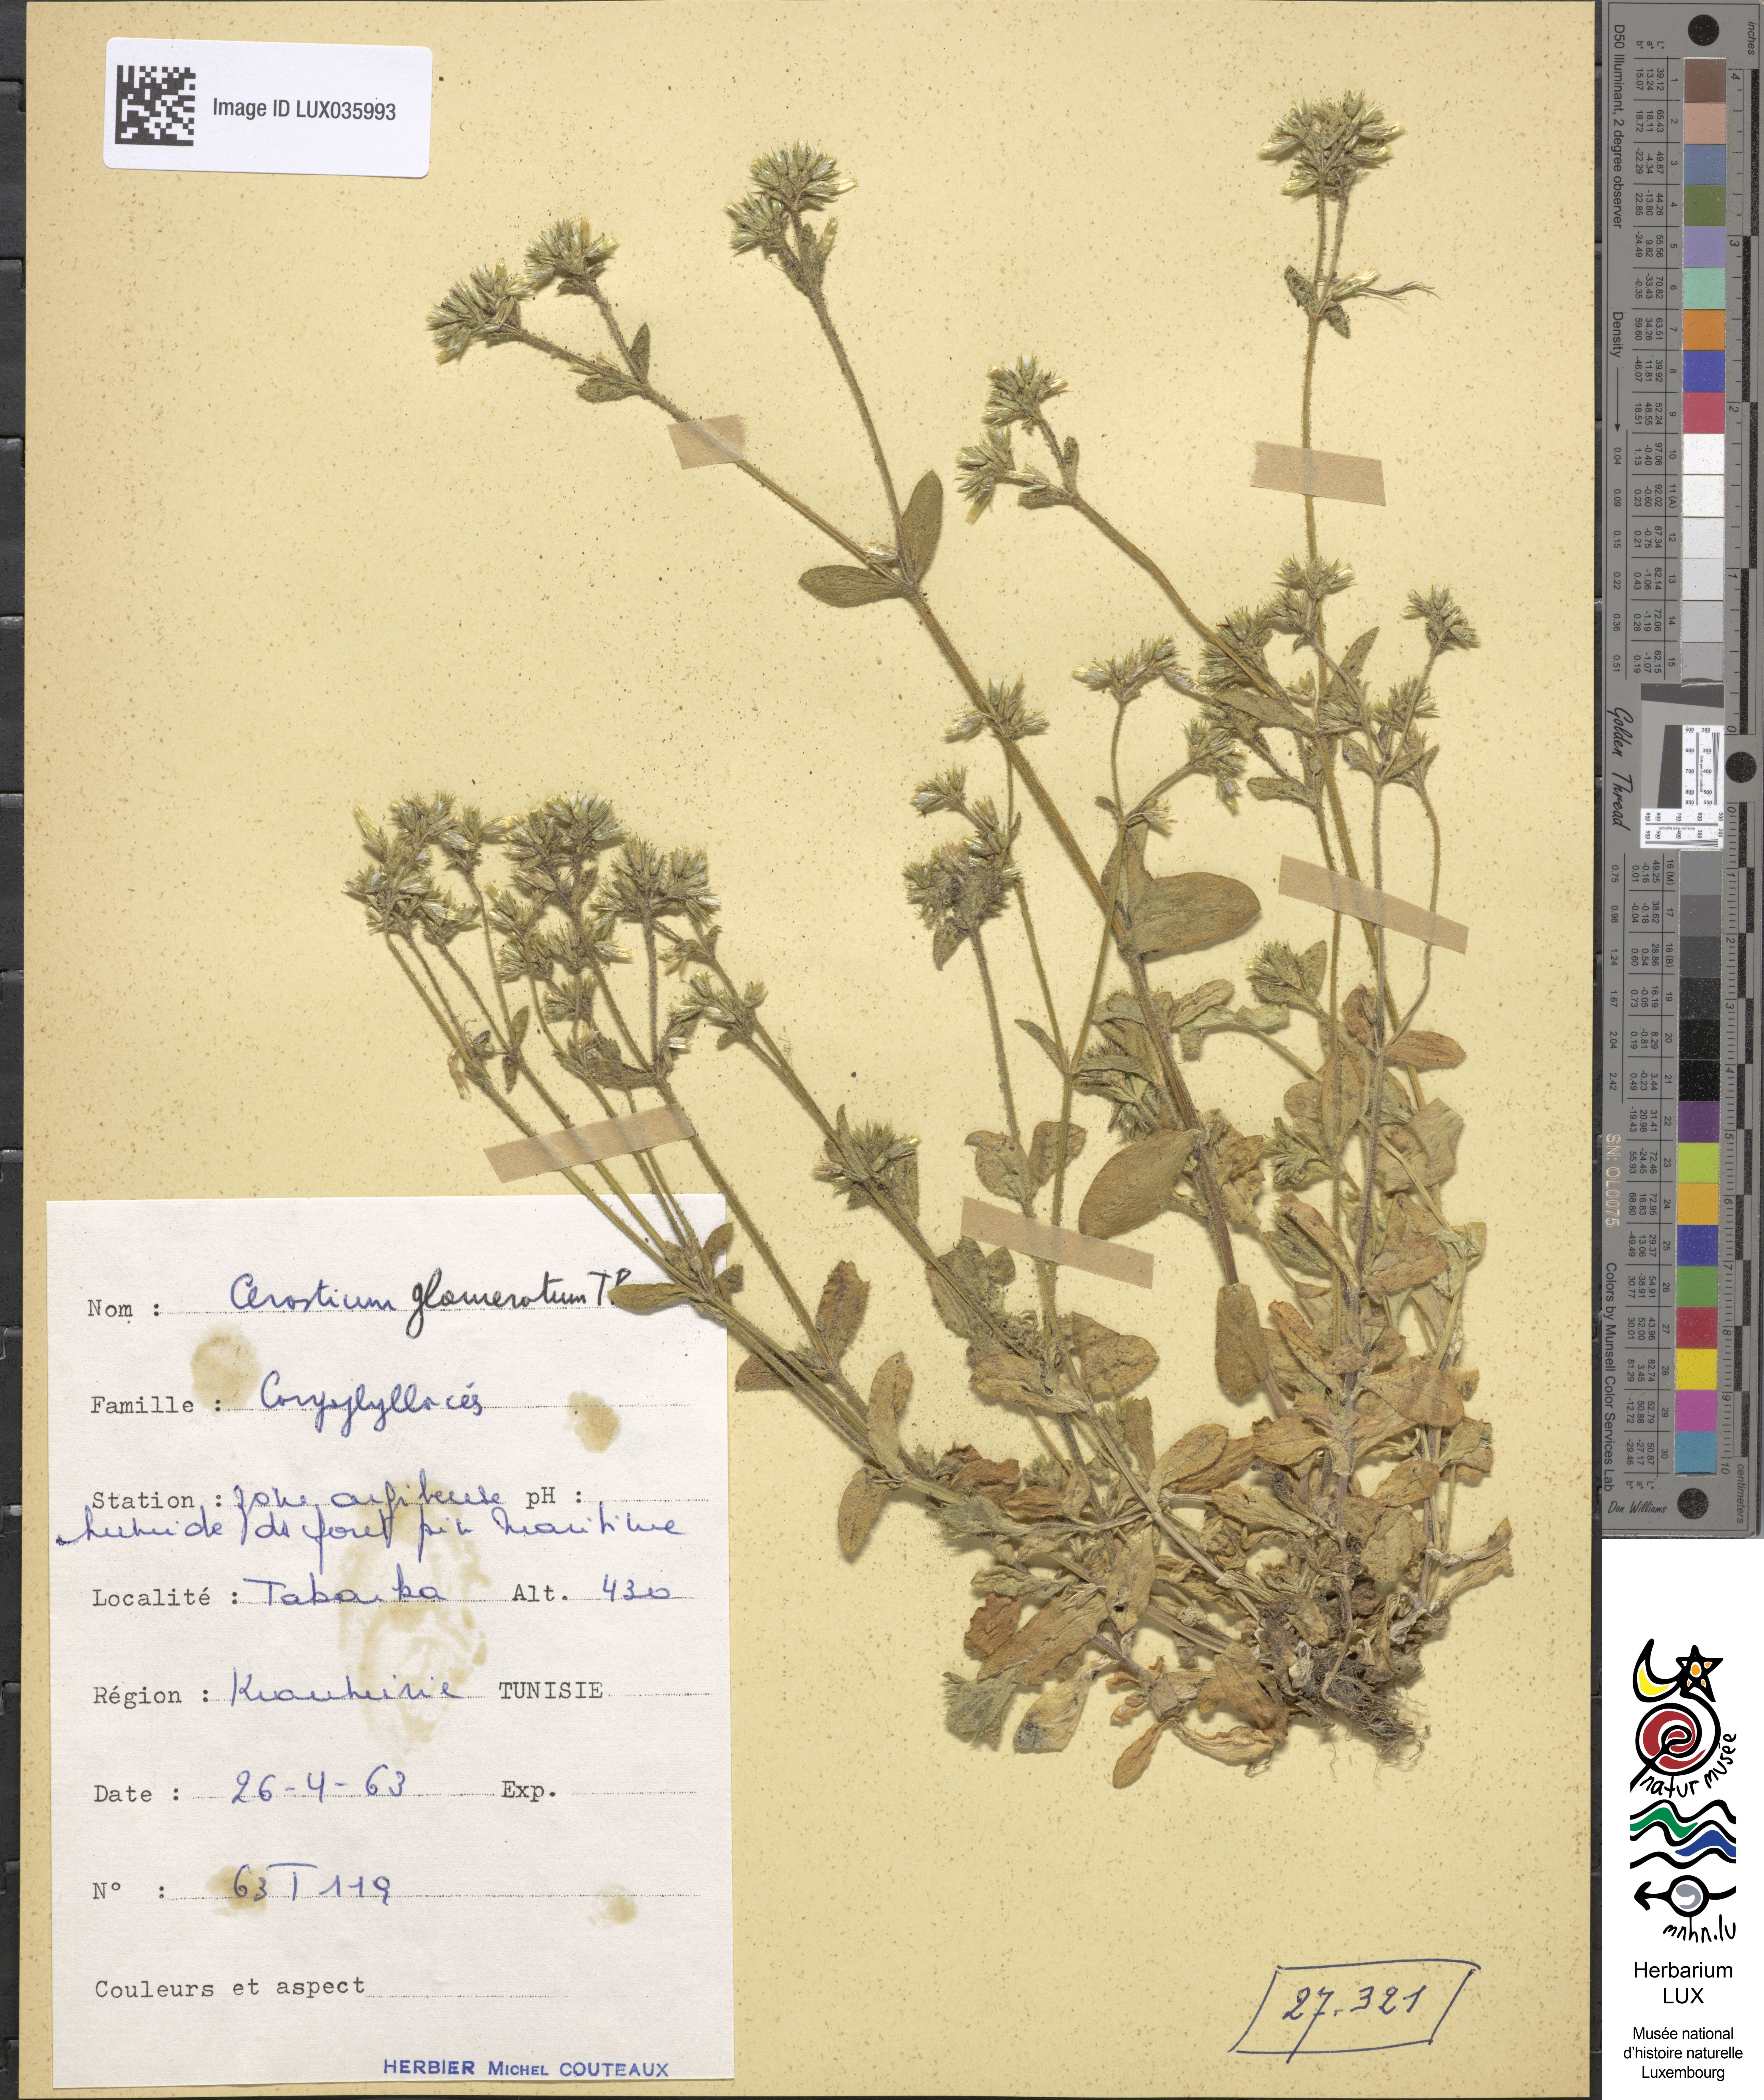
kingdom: Plantae
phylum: Tracheophyta
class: Magnoliopsida
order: Caryophyllales
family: Caryophyllaceae
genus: Cerastium
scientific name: Cerastium glomeratum
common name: Sticky chickweed
